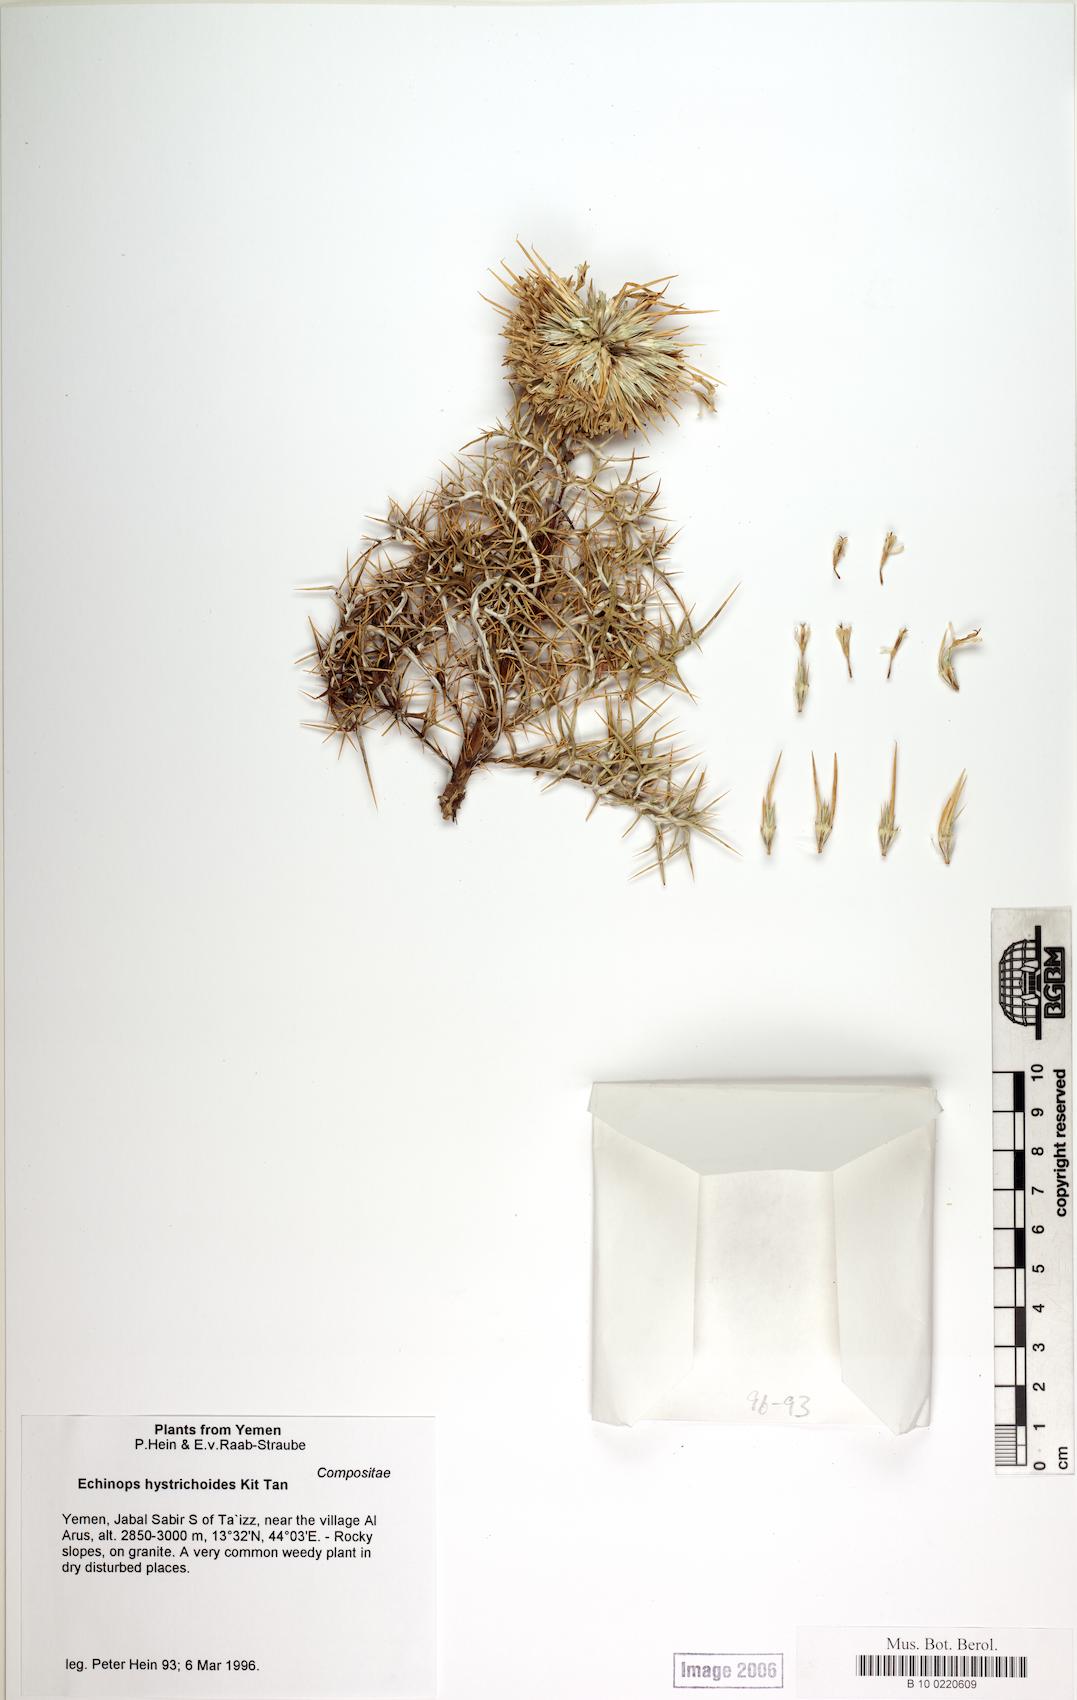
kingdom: Plantae
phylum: Tracheophyta
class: Magnoliopsida
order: Caryophyllales
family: Caryophyllaceae
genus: Stellaria
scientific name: Stellaria apetala
